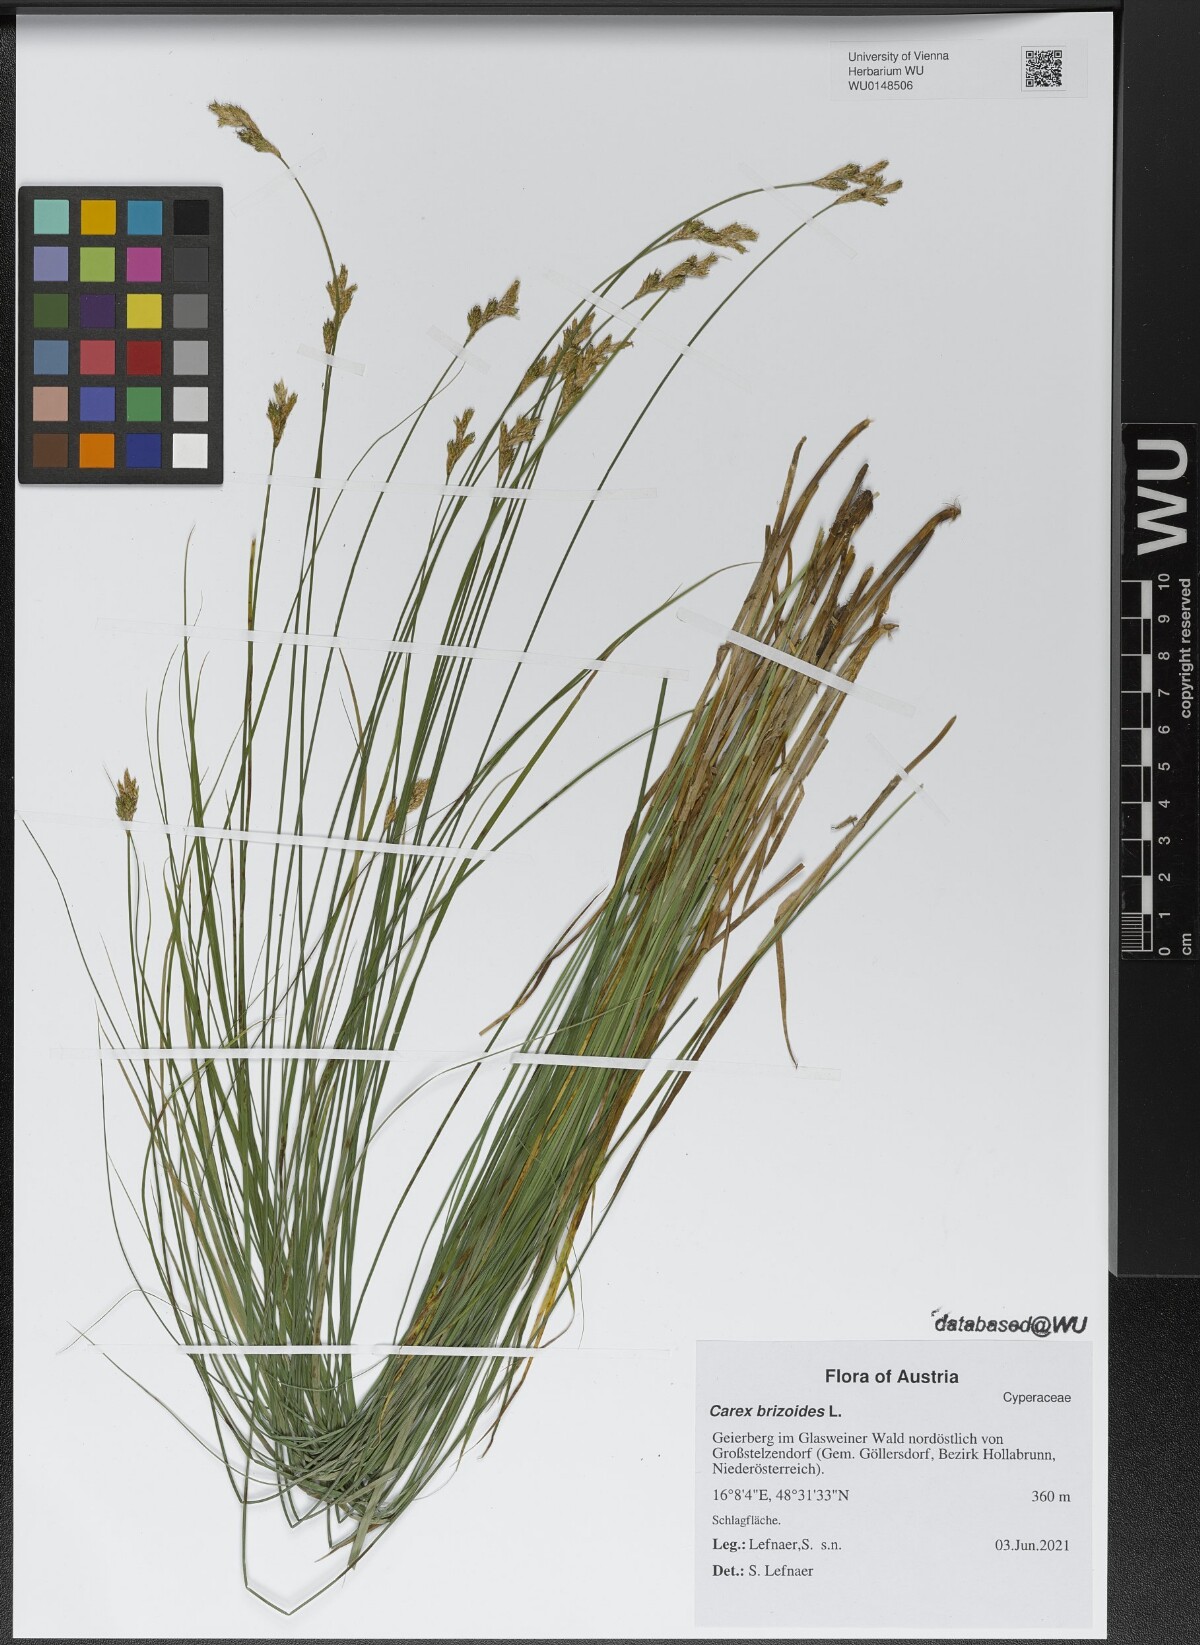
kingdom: Plantae
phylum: Tracheophyta
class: Liliopsida
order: Poales
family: Cyperaceae
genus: Carex
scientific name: Carex brizoides
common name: Quaking-grass sedge
